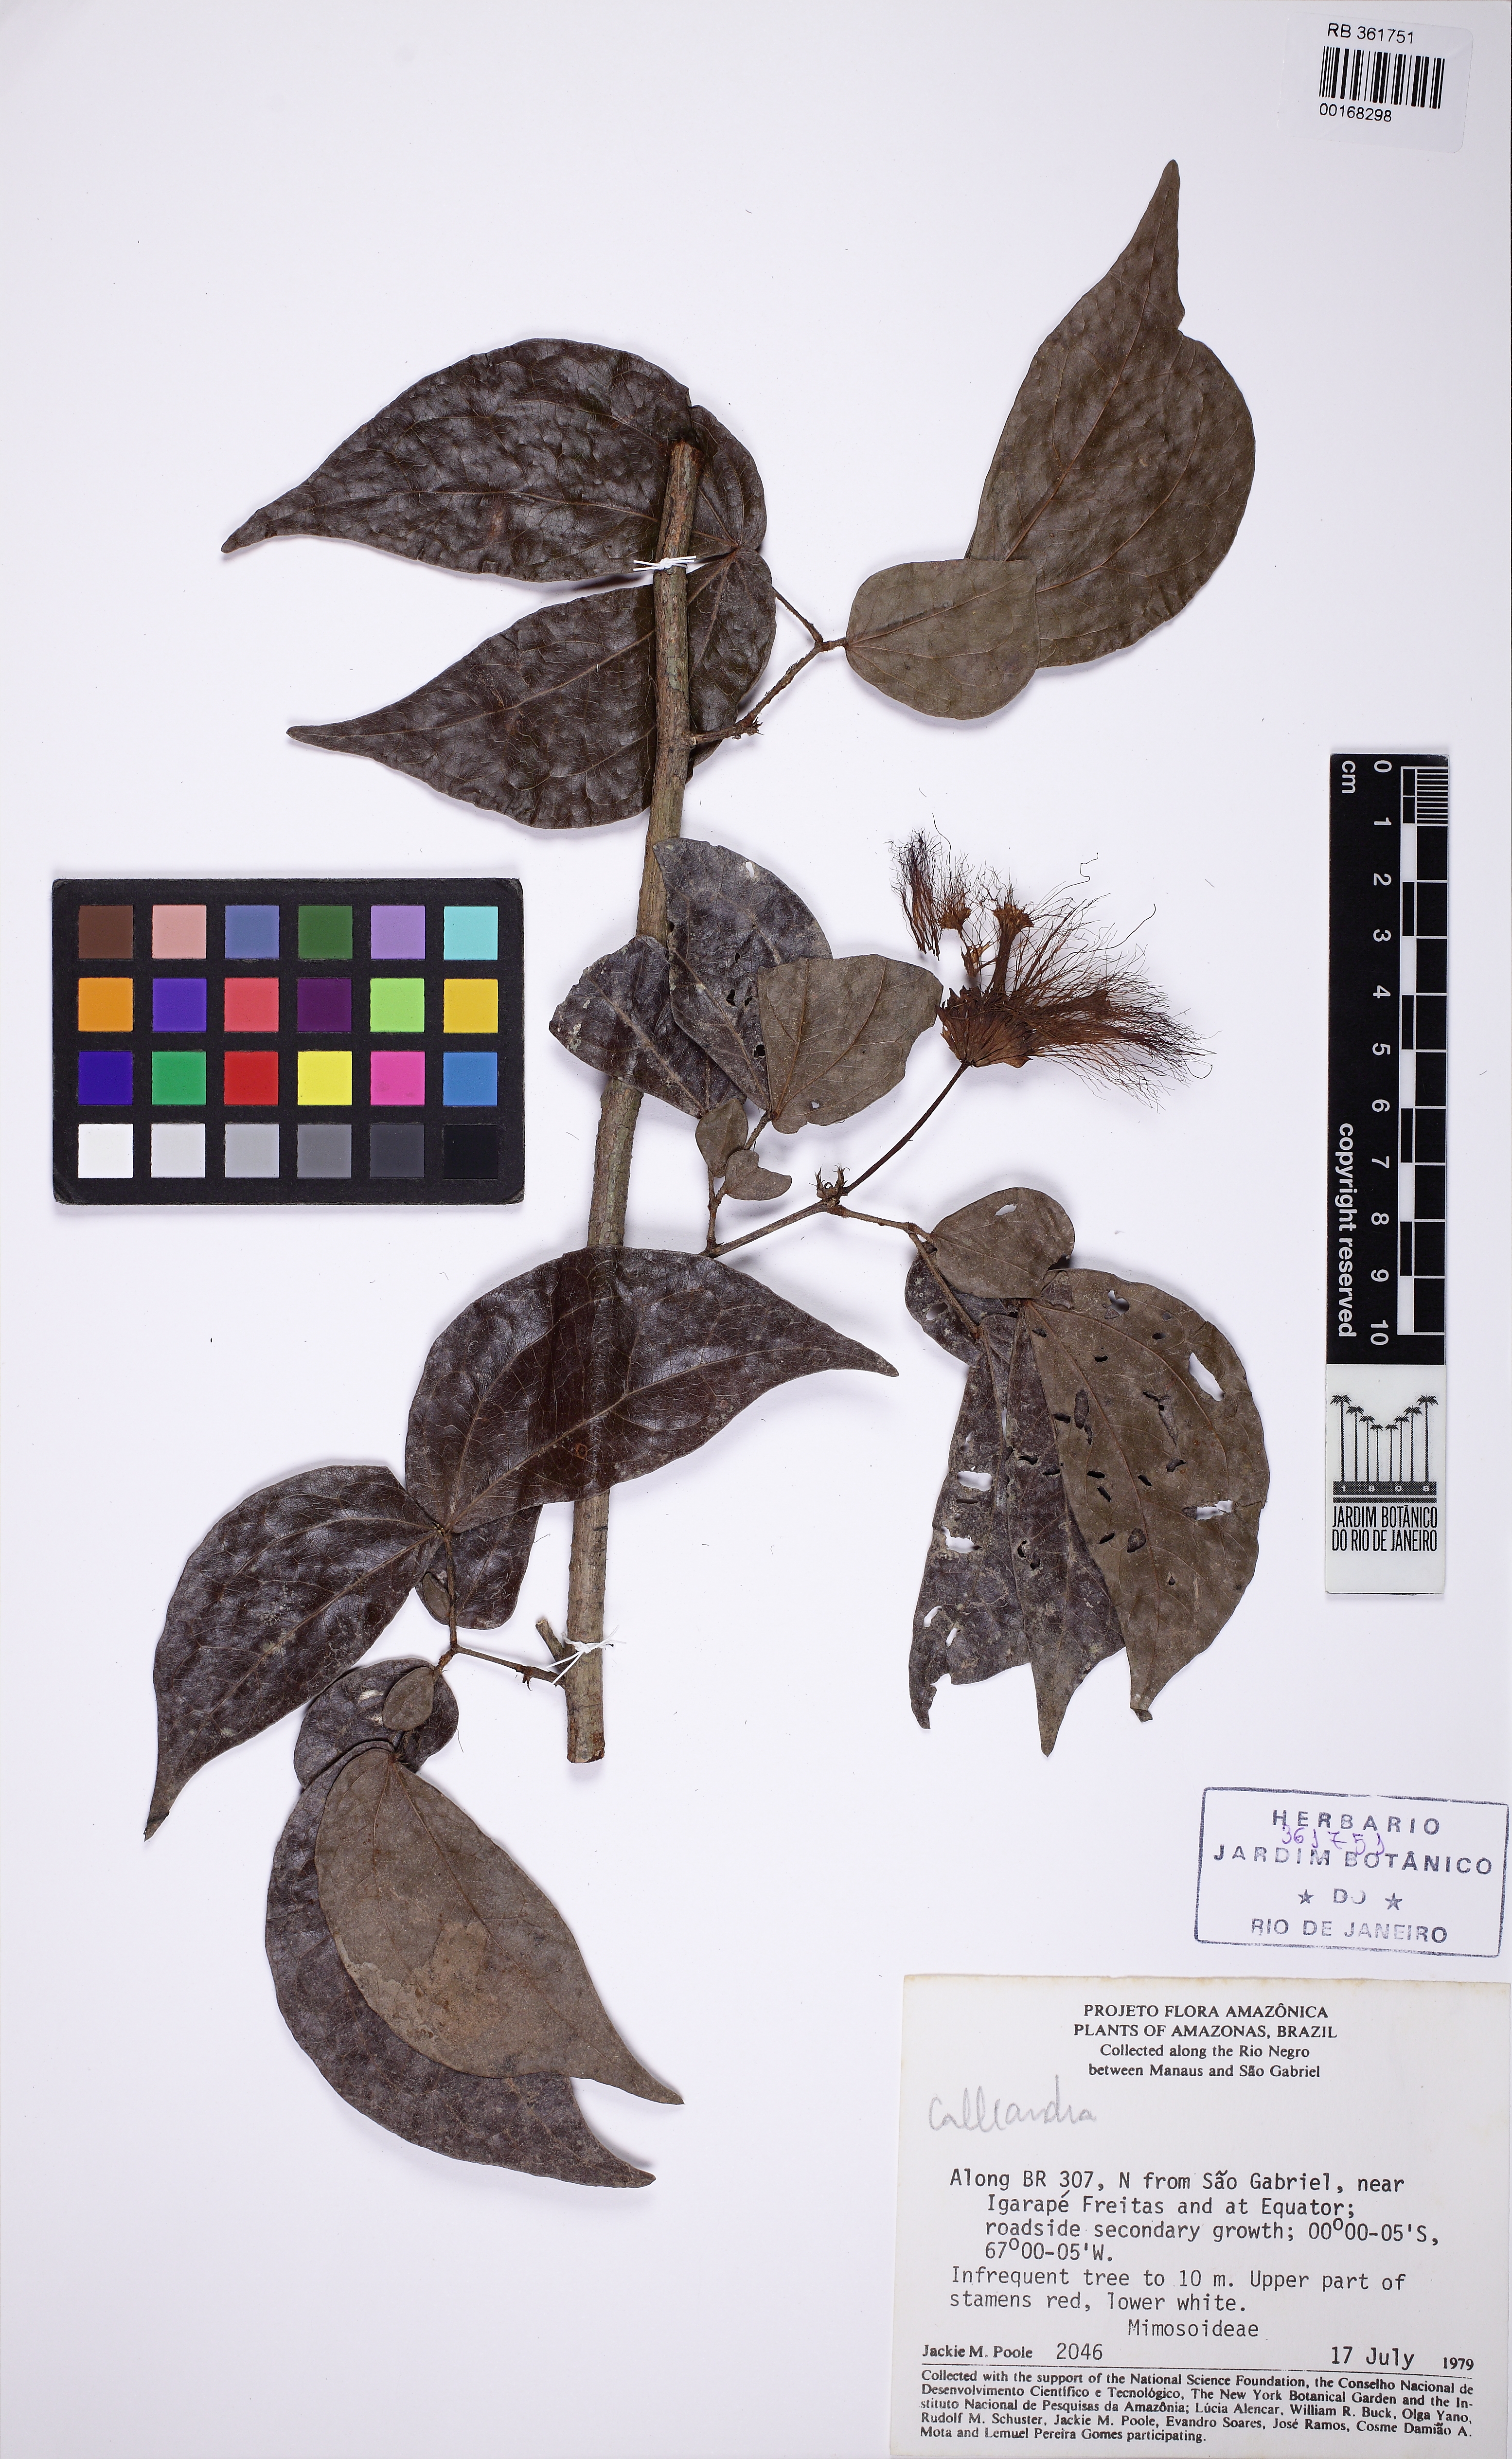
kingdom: Plantae
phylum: Tracheophyta
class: Magnoliopsida
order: Fabales
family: Fabaceae
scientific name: Fabaceae
